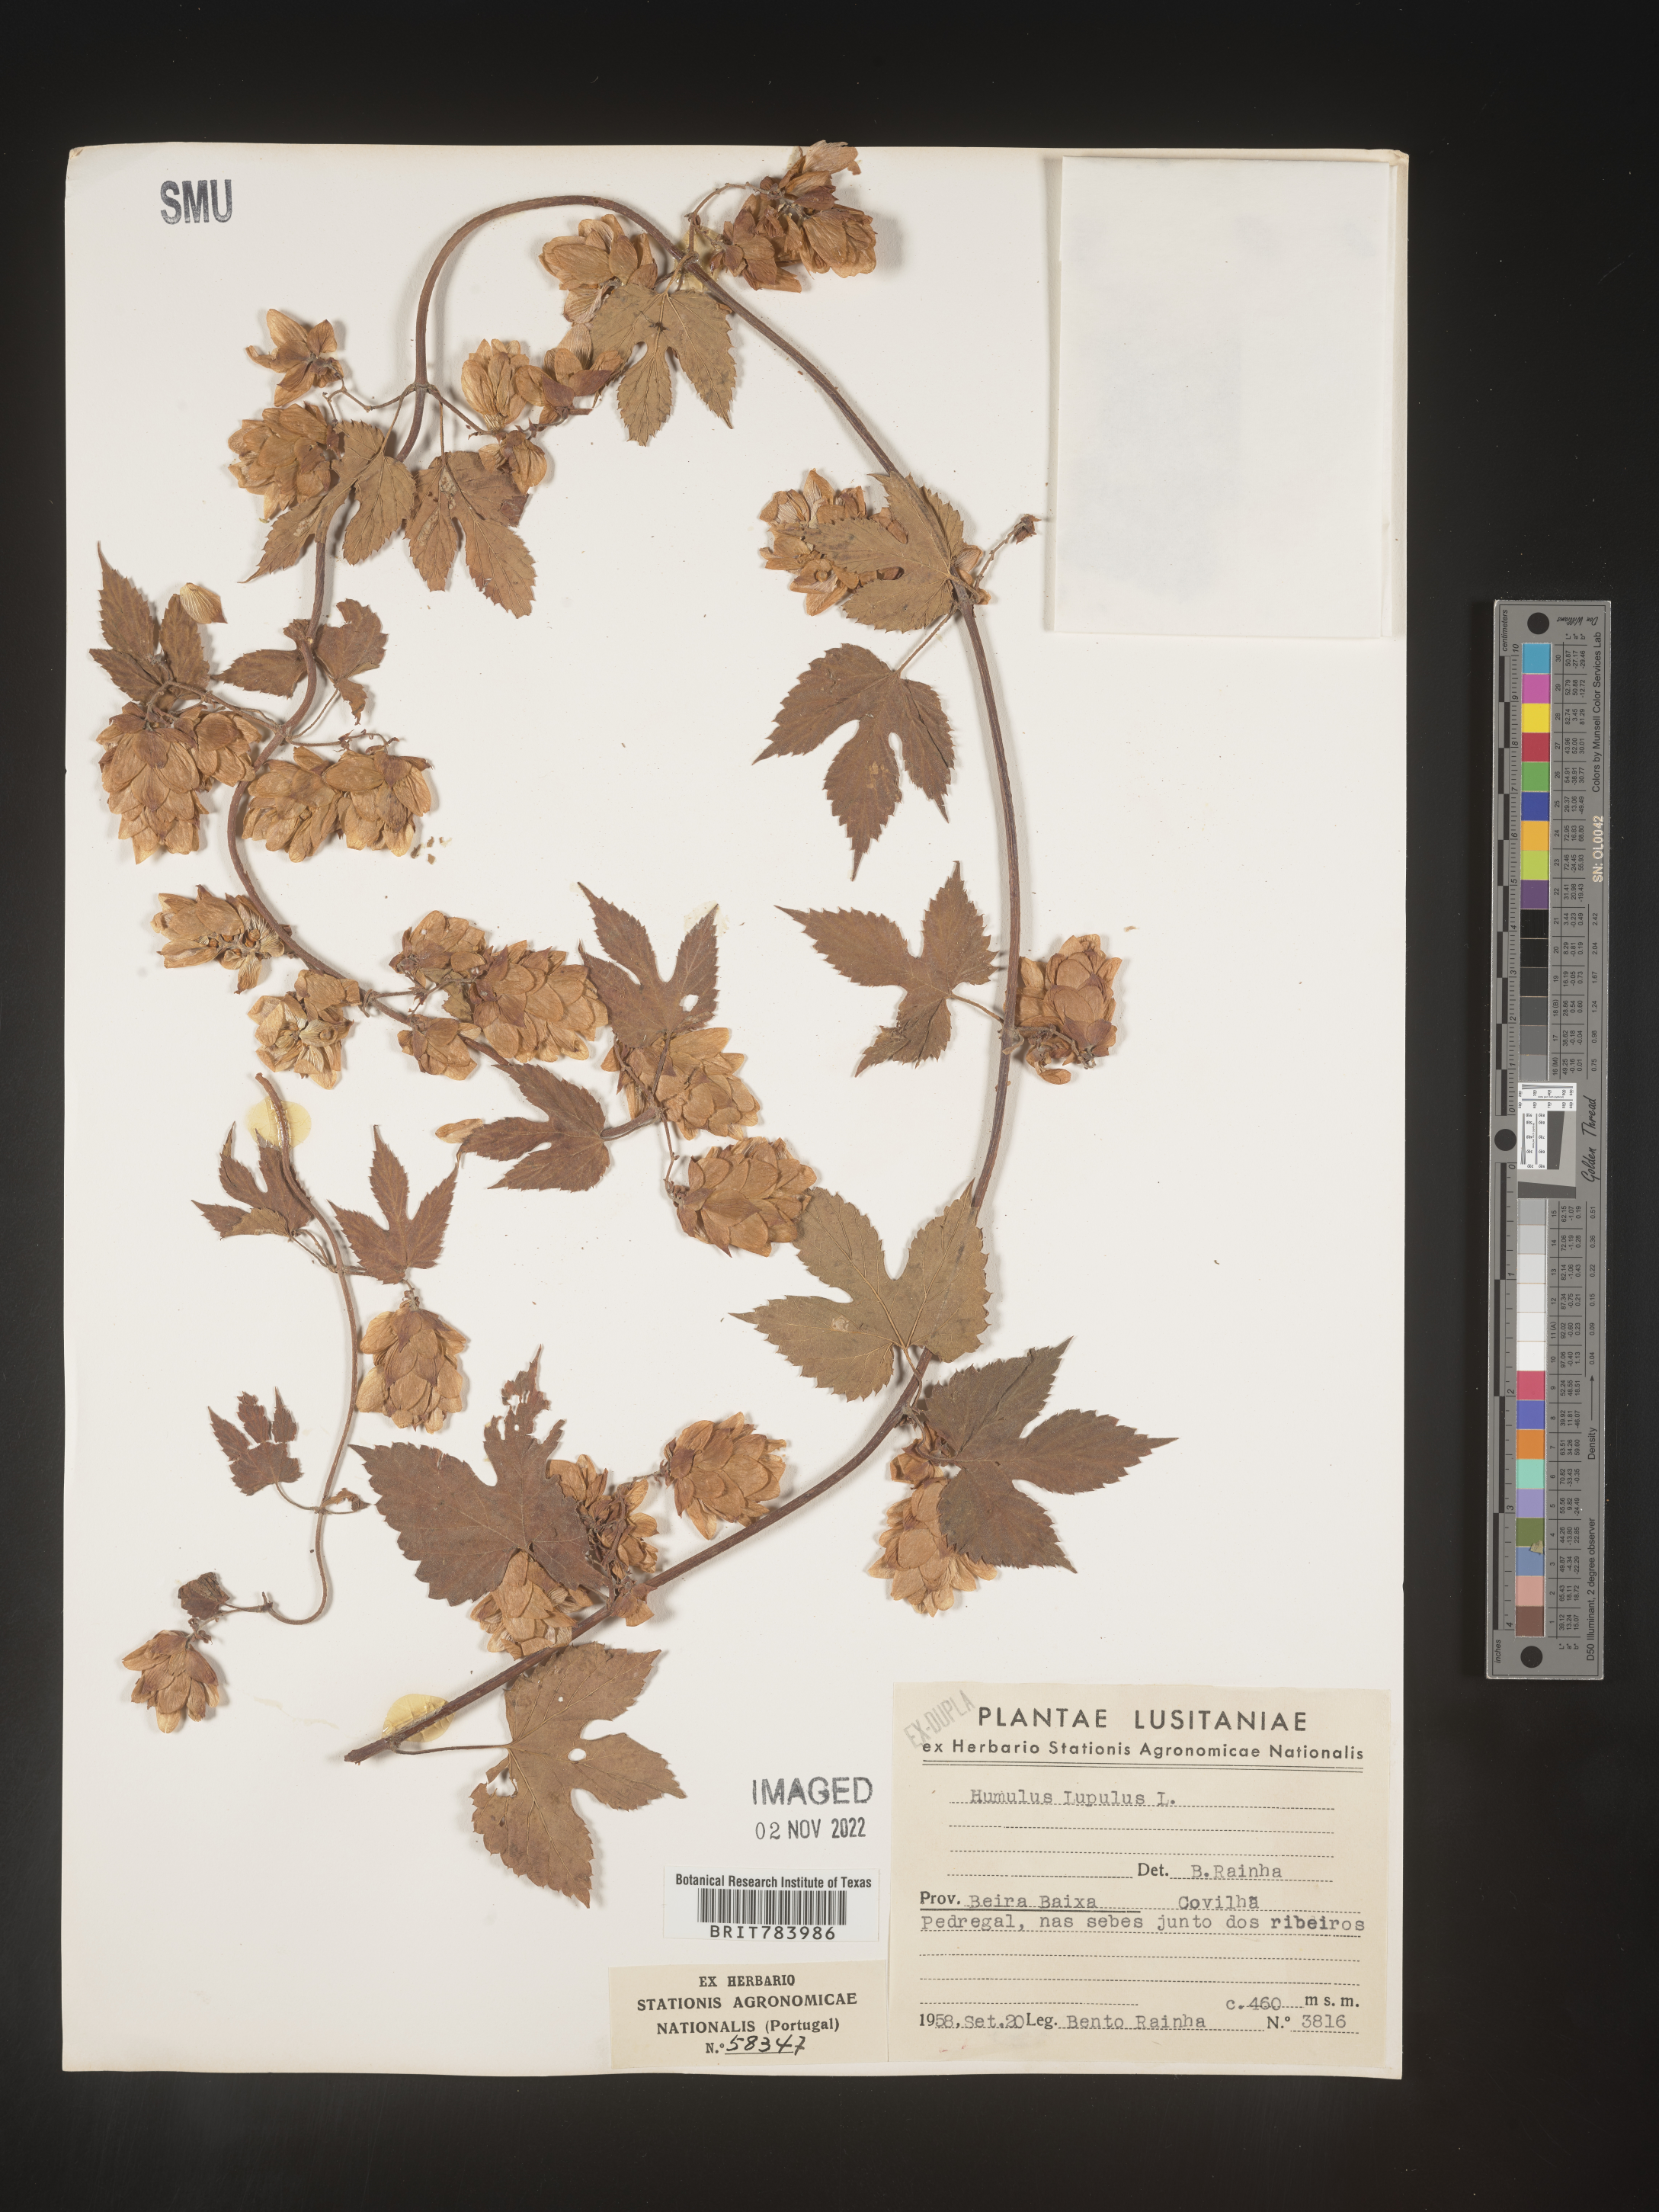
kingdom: Plantae
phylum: Tracheophyta
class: Magnoliopsida
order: Rosales
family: Cannabaceae
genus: Humulus
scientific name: Humulus
